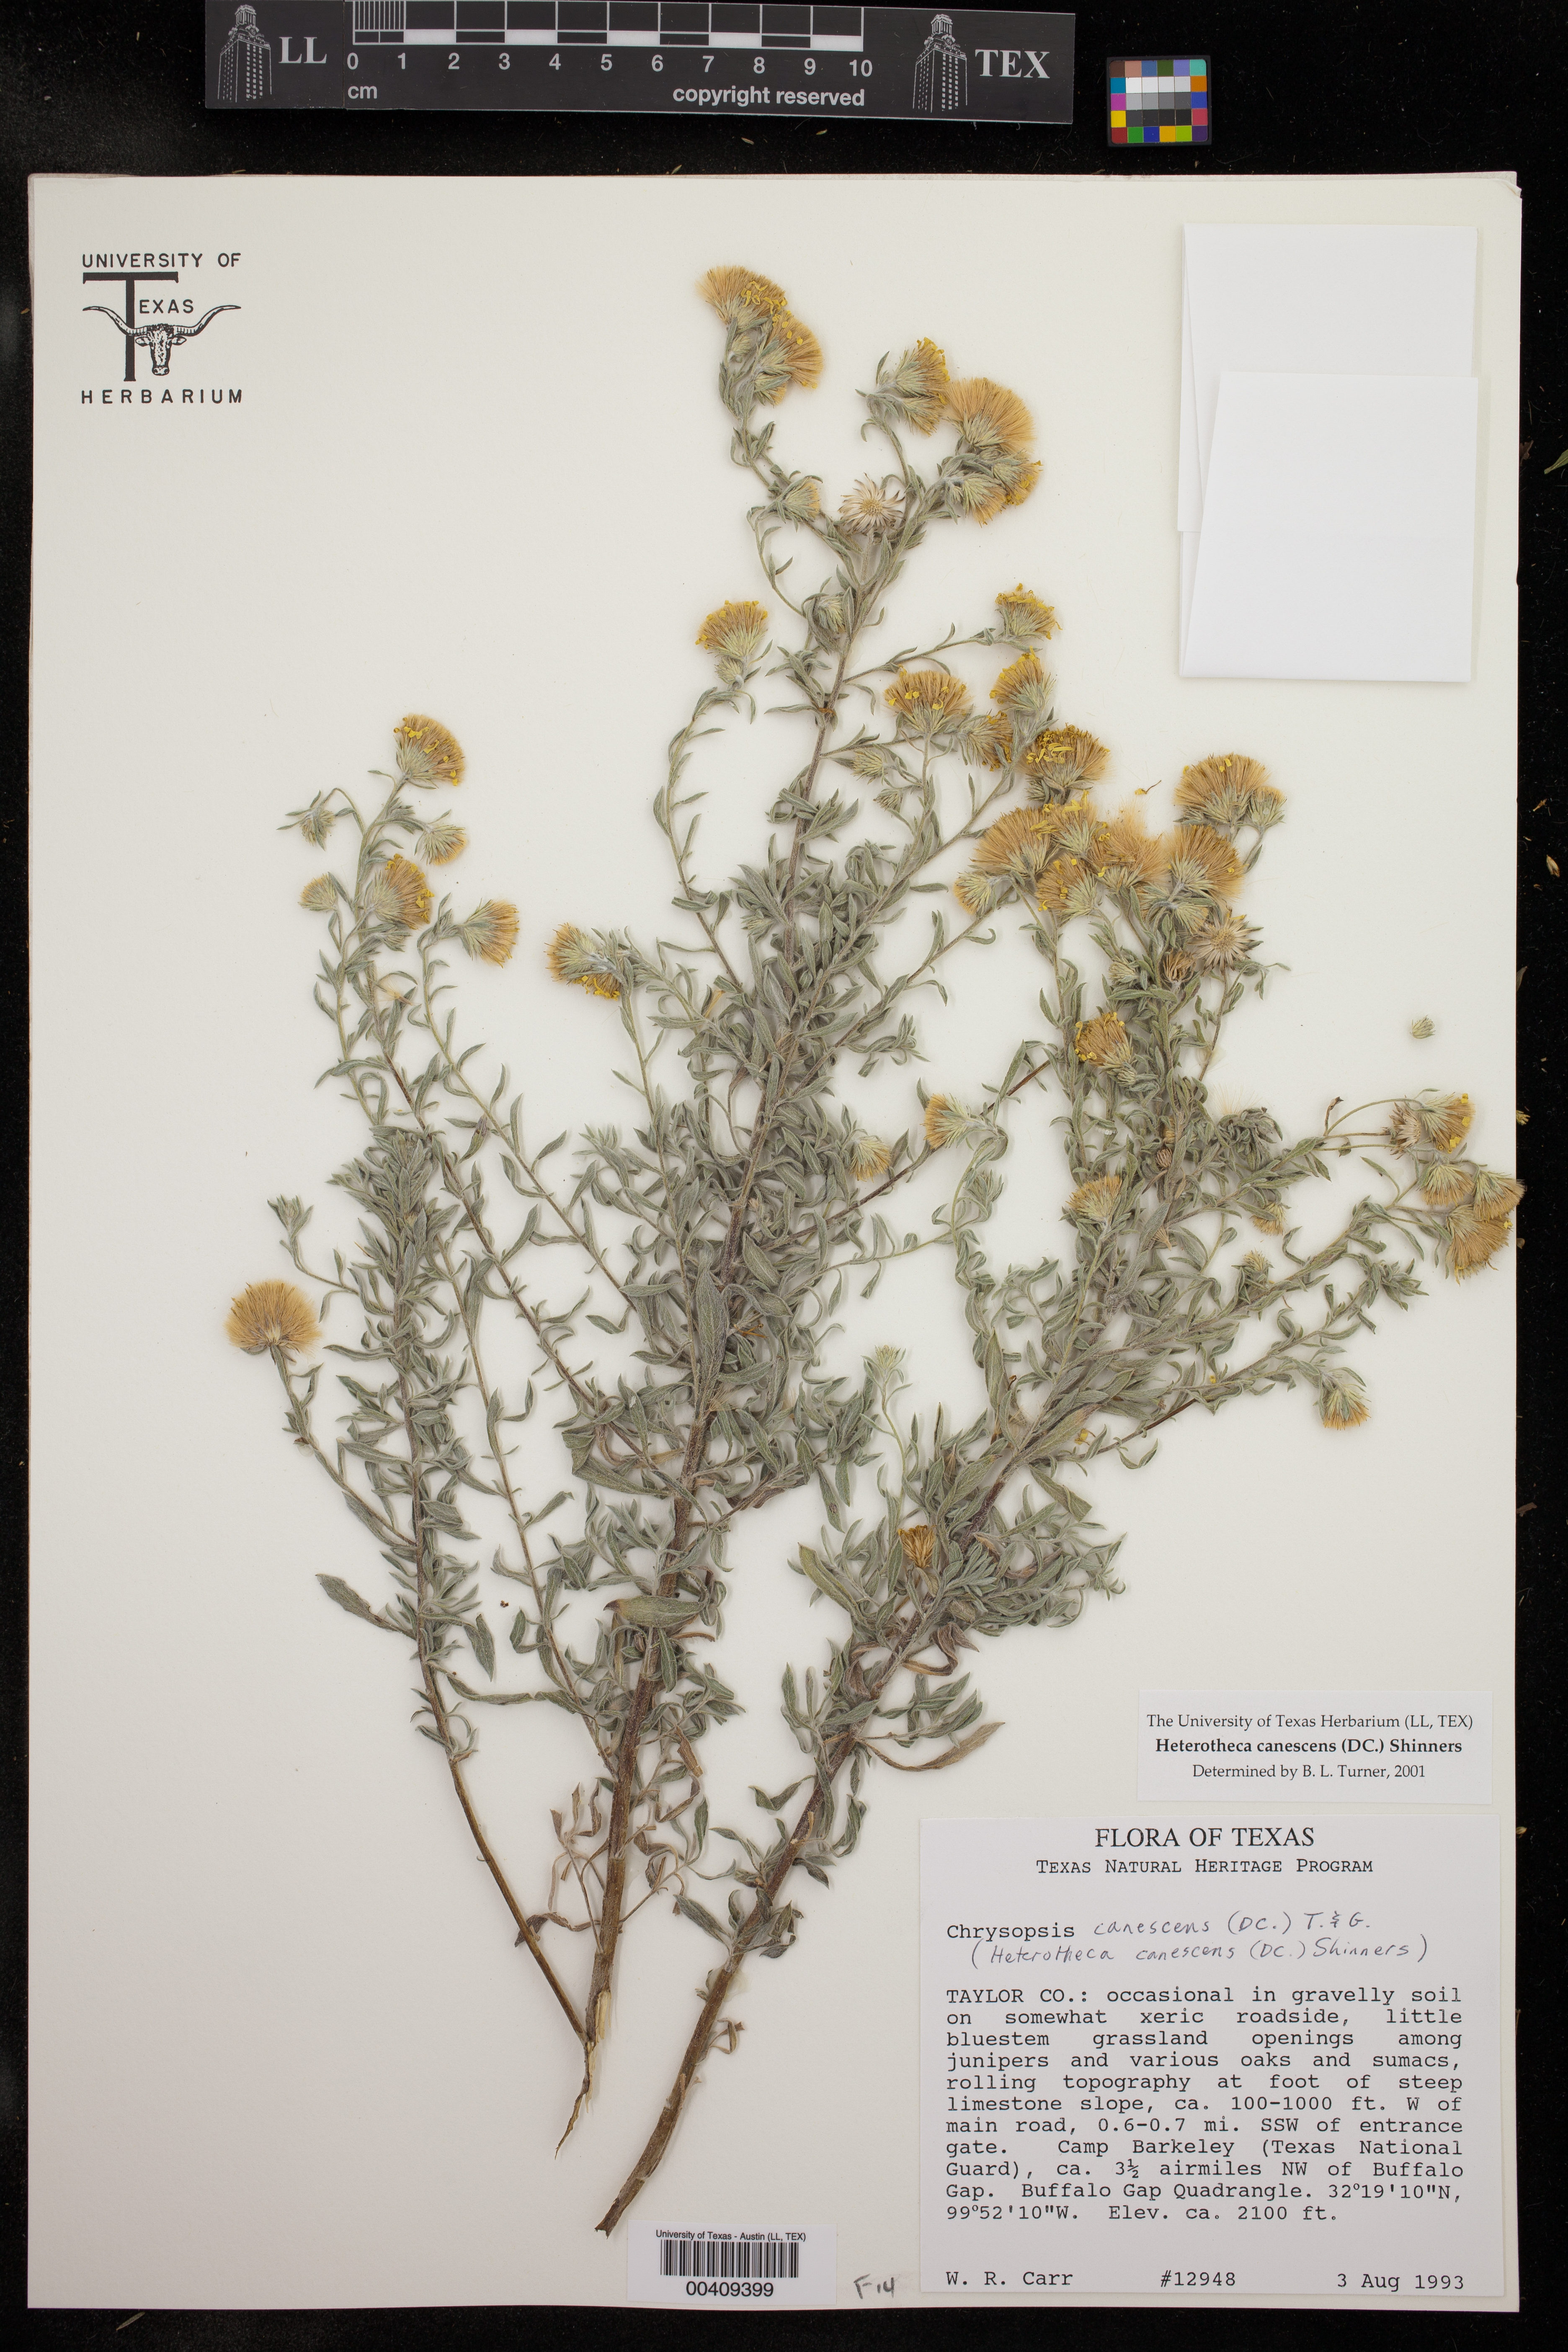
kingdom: Plantae
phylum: Tracheophyta
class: Magnoliopsida
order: Asterales
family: Asteraceae
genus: Heterotheca
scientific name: Heterotheca canescens
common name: Hoary golden-aster
